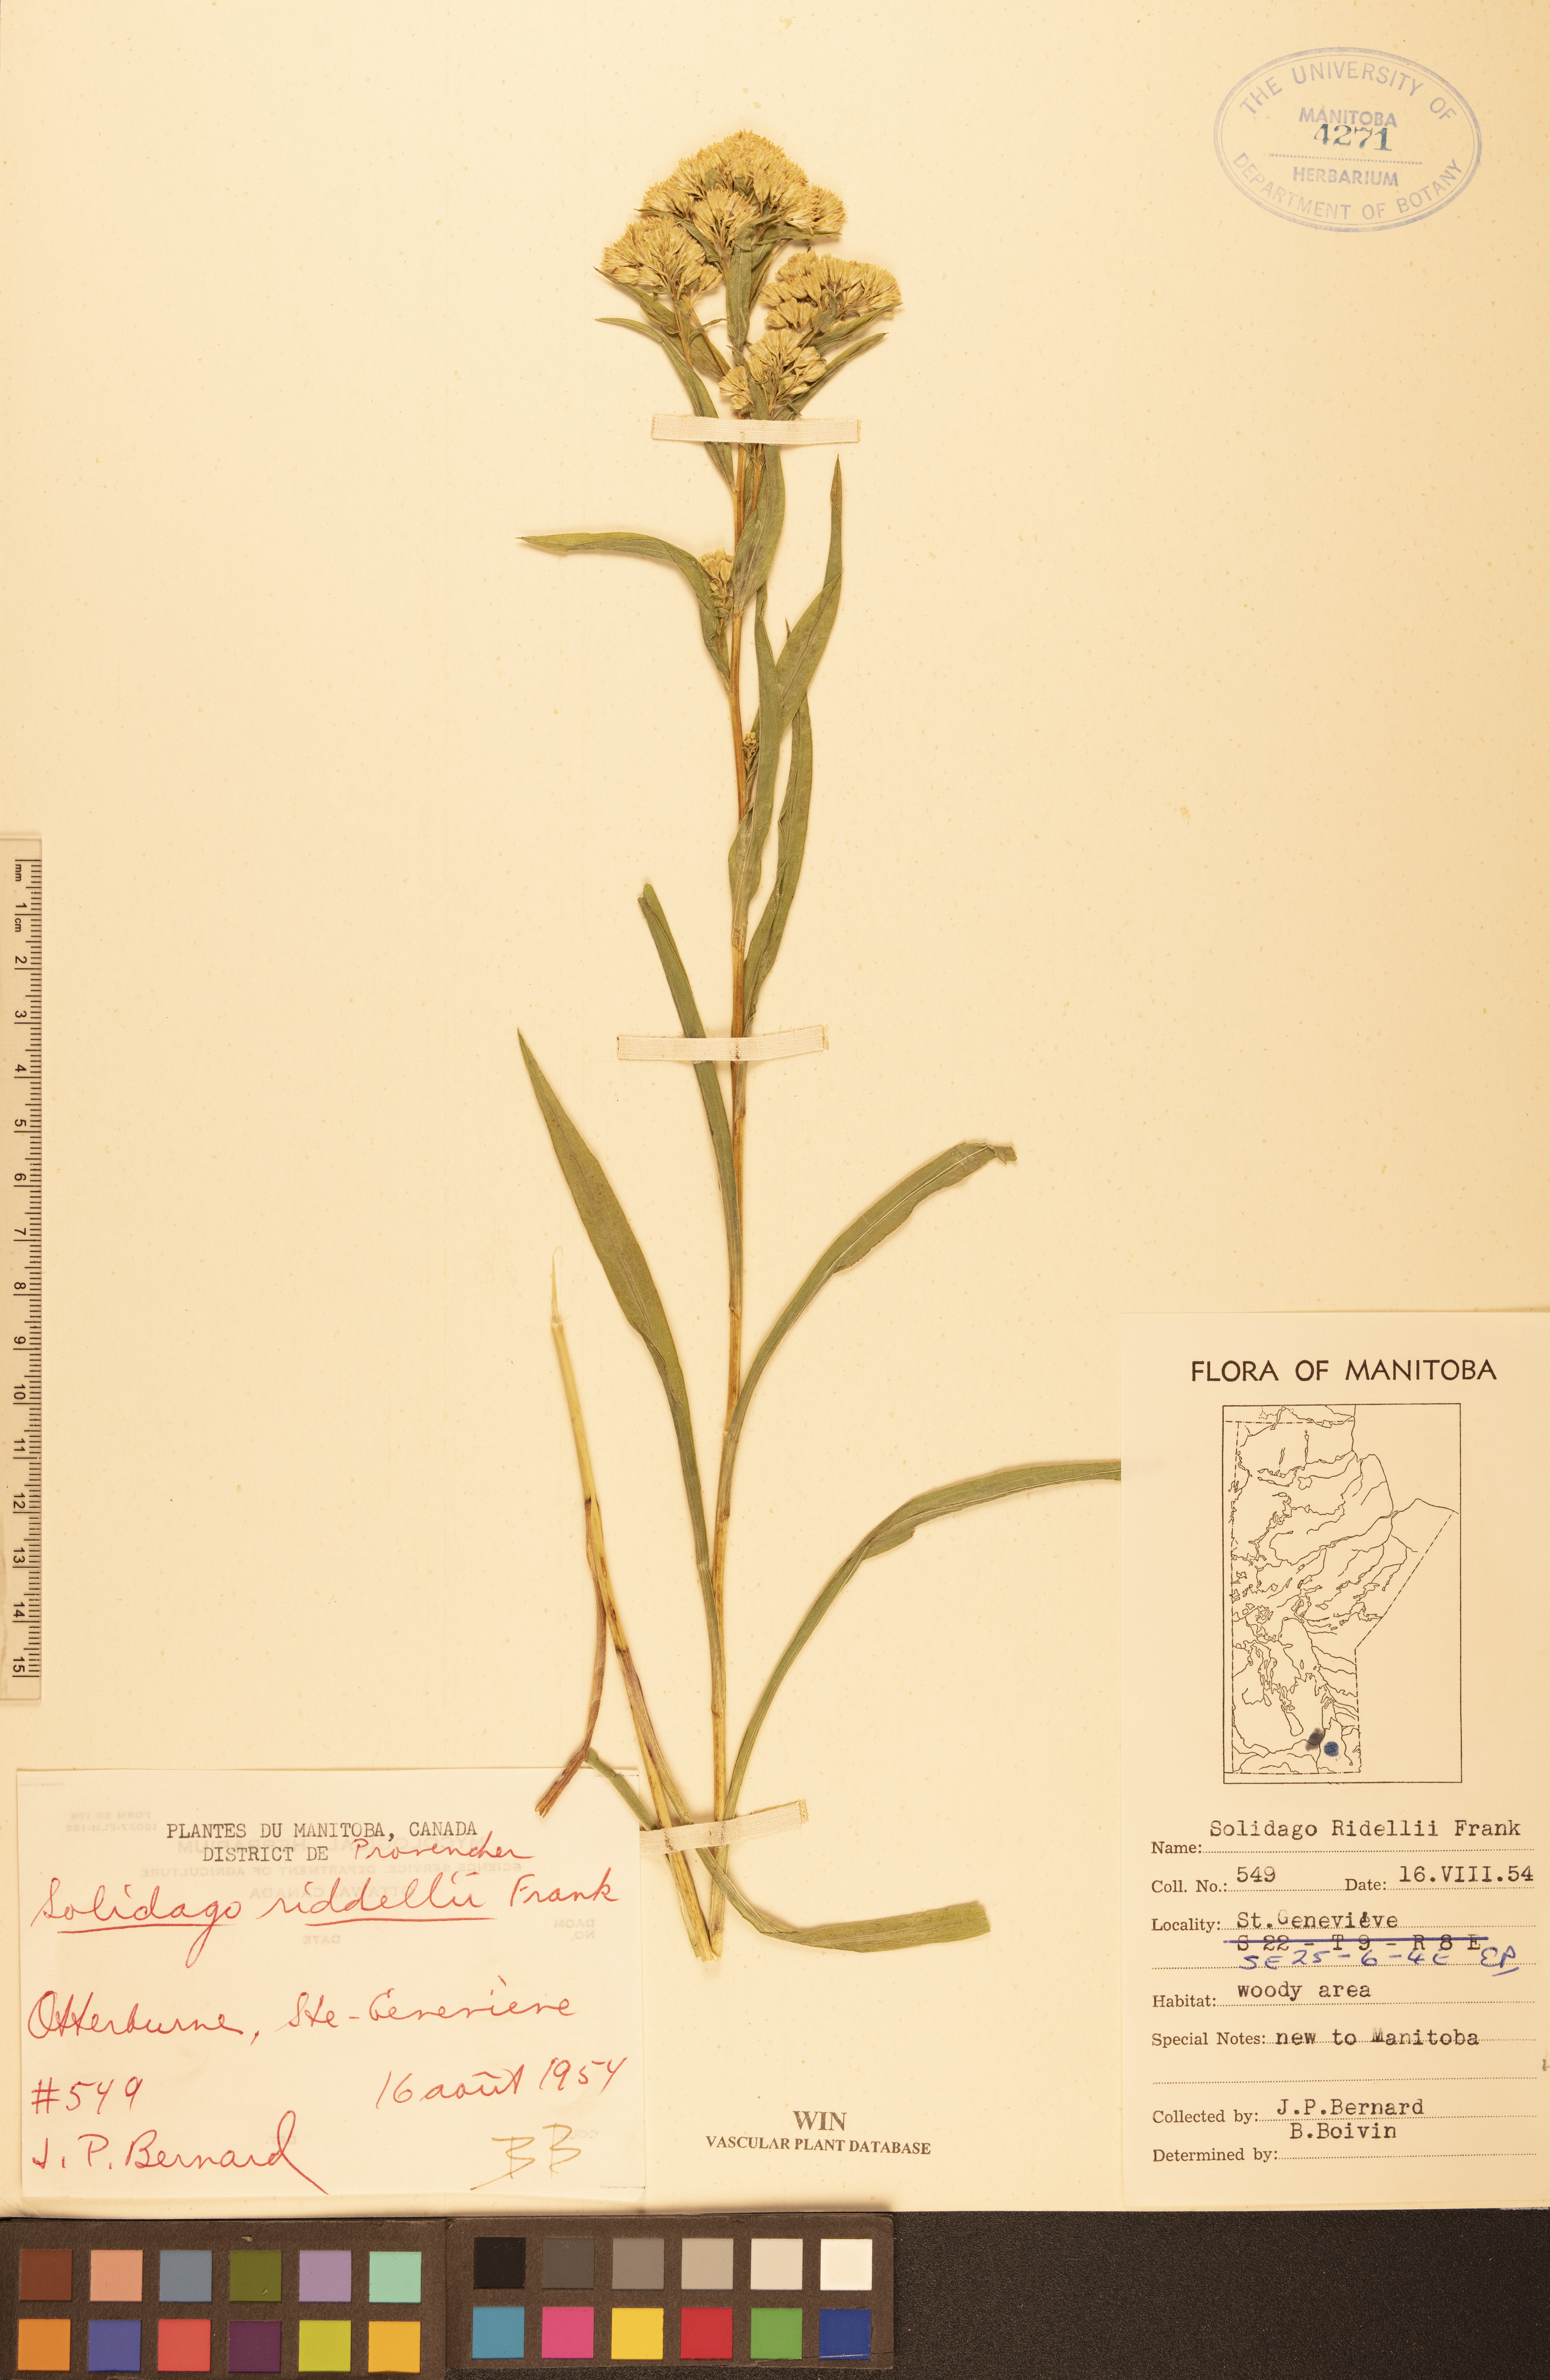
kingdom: Plantae
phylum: Tracheophyta
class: Magnoliopsida
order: Asterales
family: Asteraceae
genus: Solidago
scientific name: Solidago riddellii
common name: Riddell's goldenrod
